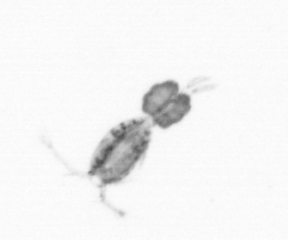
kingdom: Animalia
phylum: Arthropoda
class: Copepoda
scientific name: Copepoda
